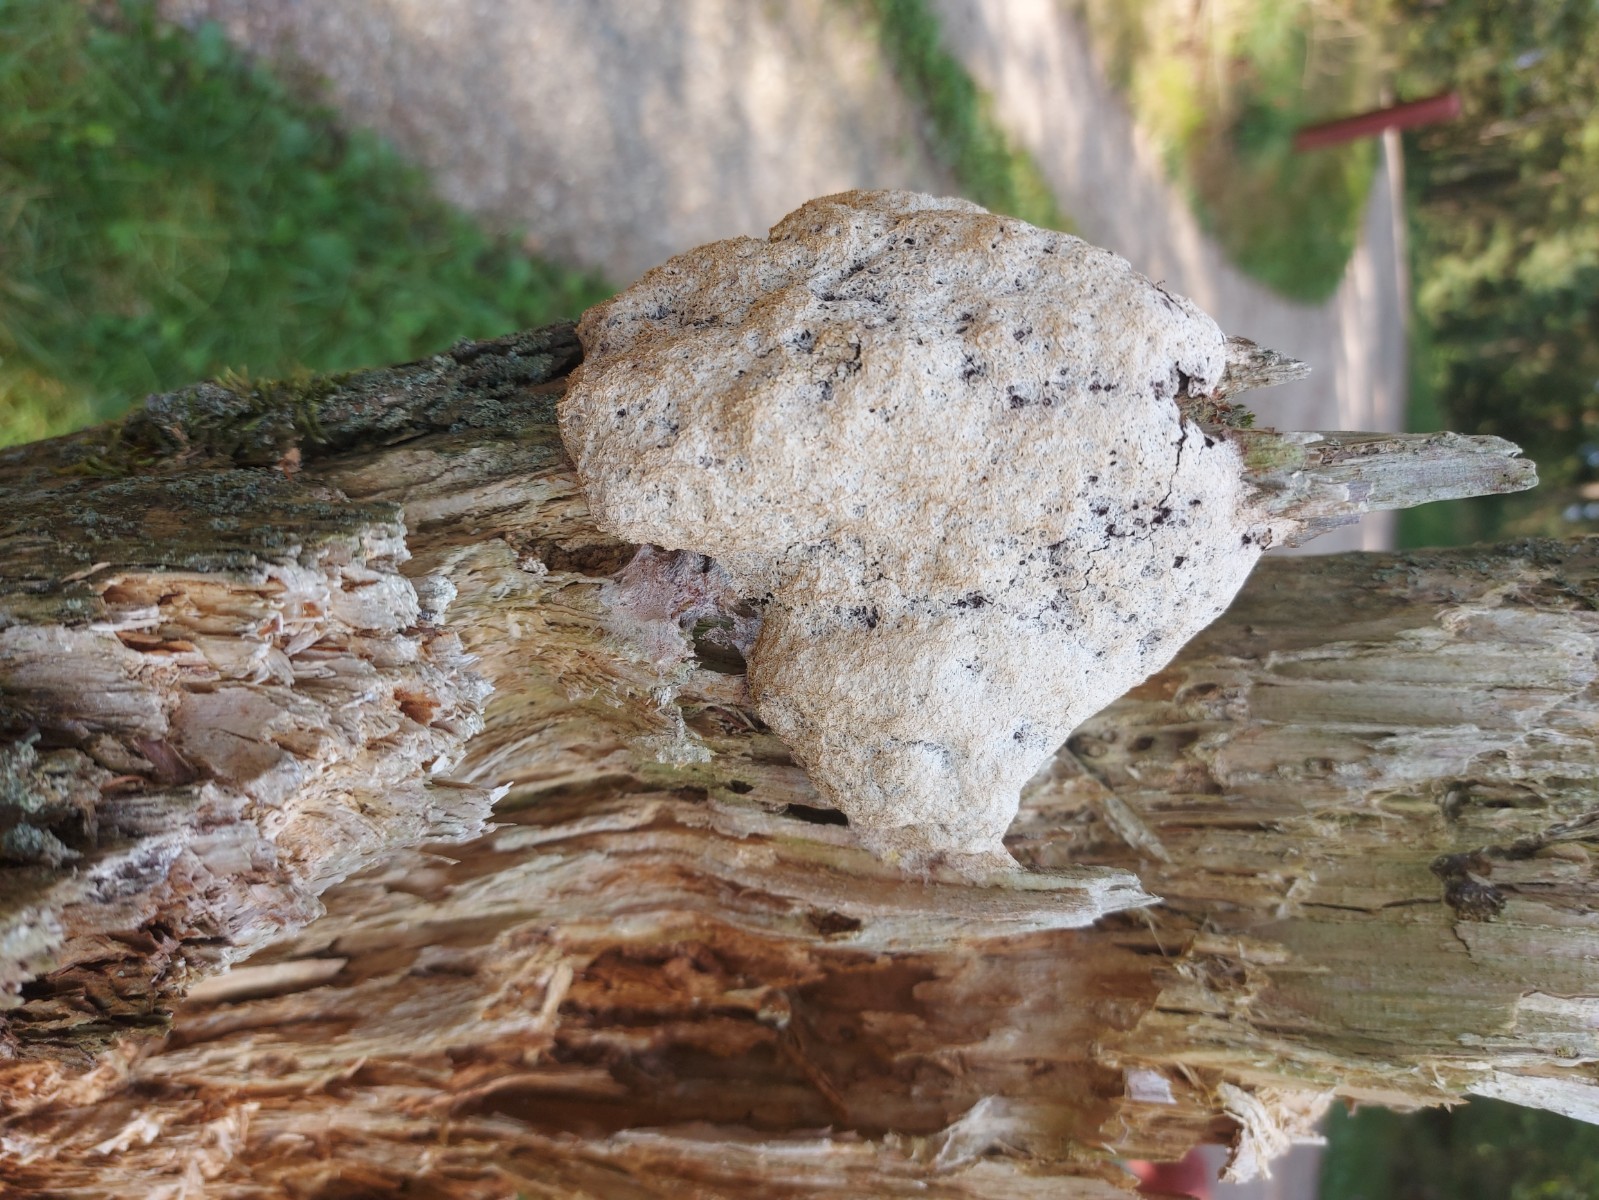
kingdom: Protozoa
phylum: Mycetozoa
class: Myxomycetes
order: Physarales
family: Physaraceae
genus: Fuligo
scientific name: Fuligo
